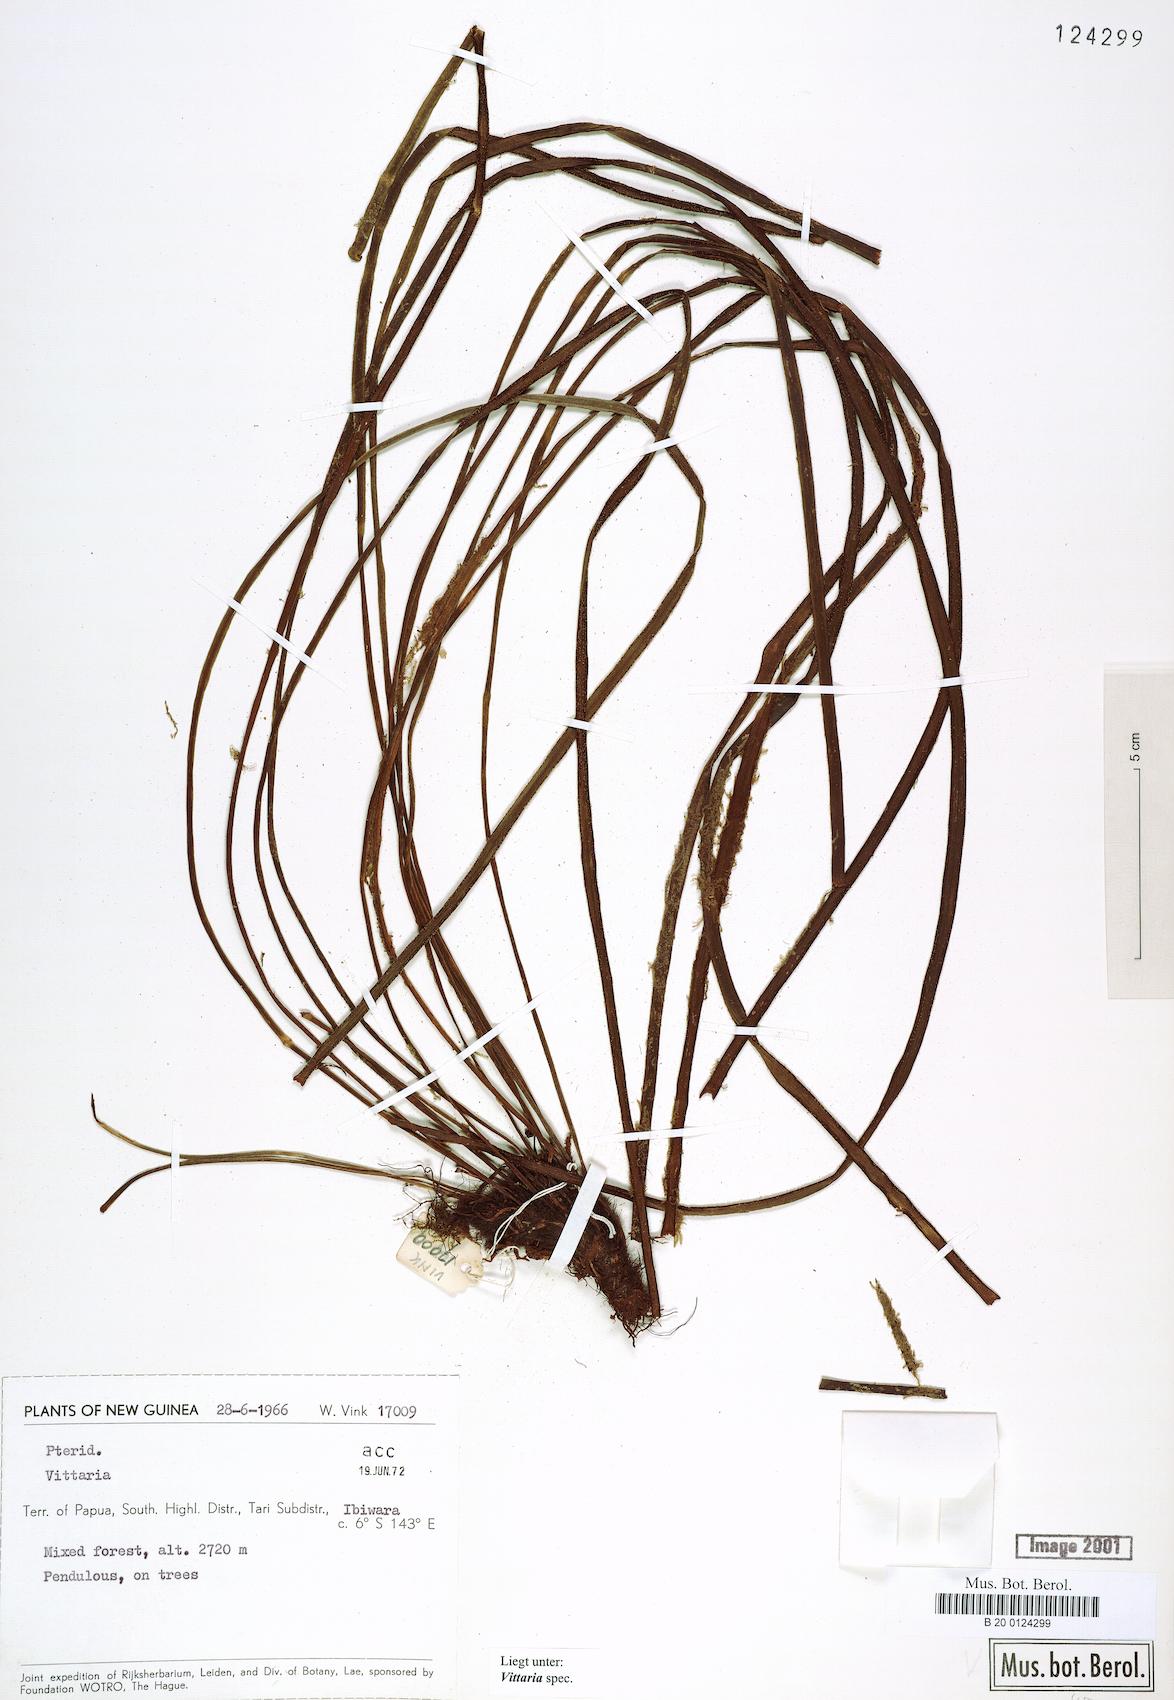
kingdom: Plantae
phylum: Tracheophyta
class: Polypodiopsida
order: Polypodiales
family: Pteridaceae
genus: Vittaria
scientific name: Vittaria
